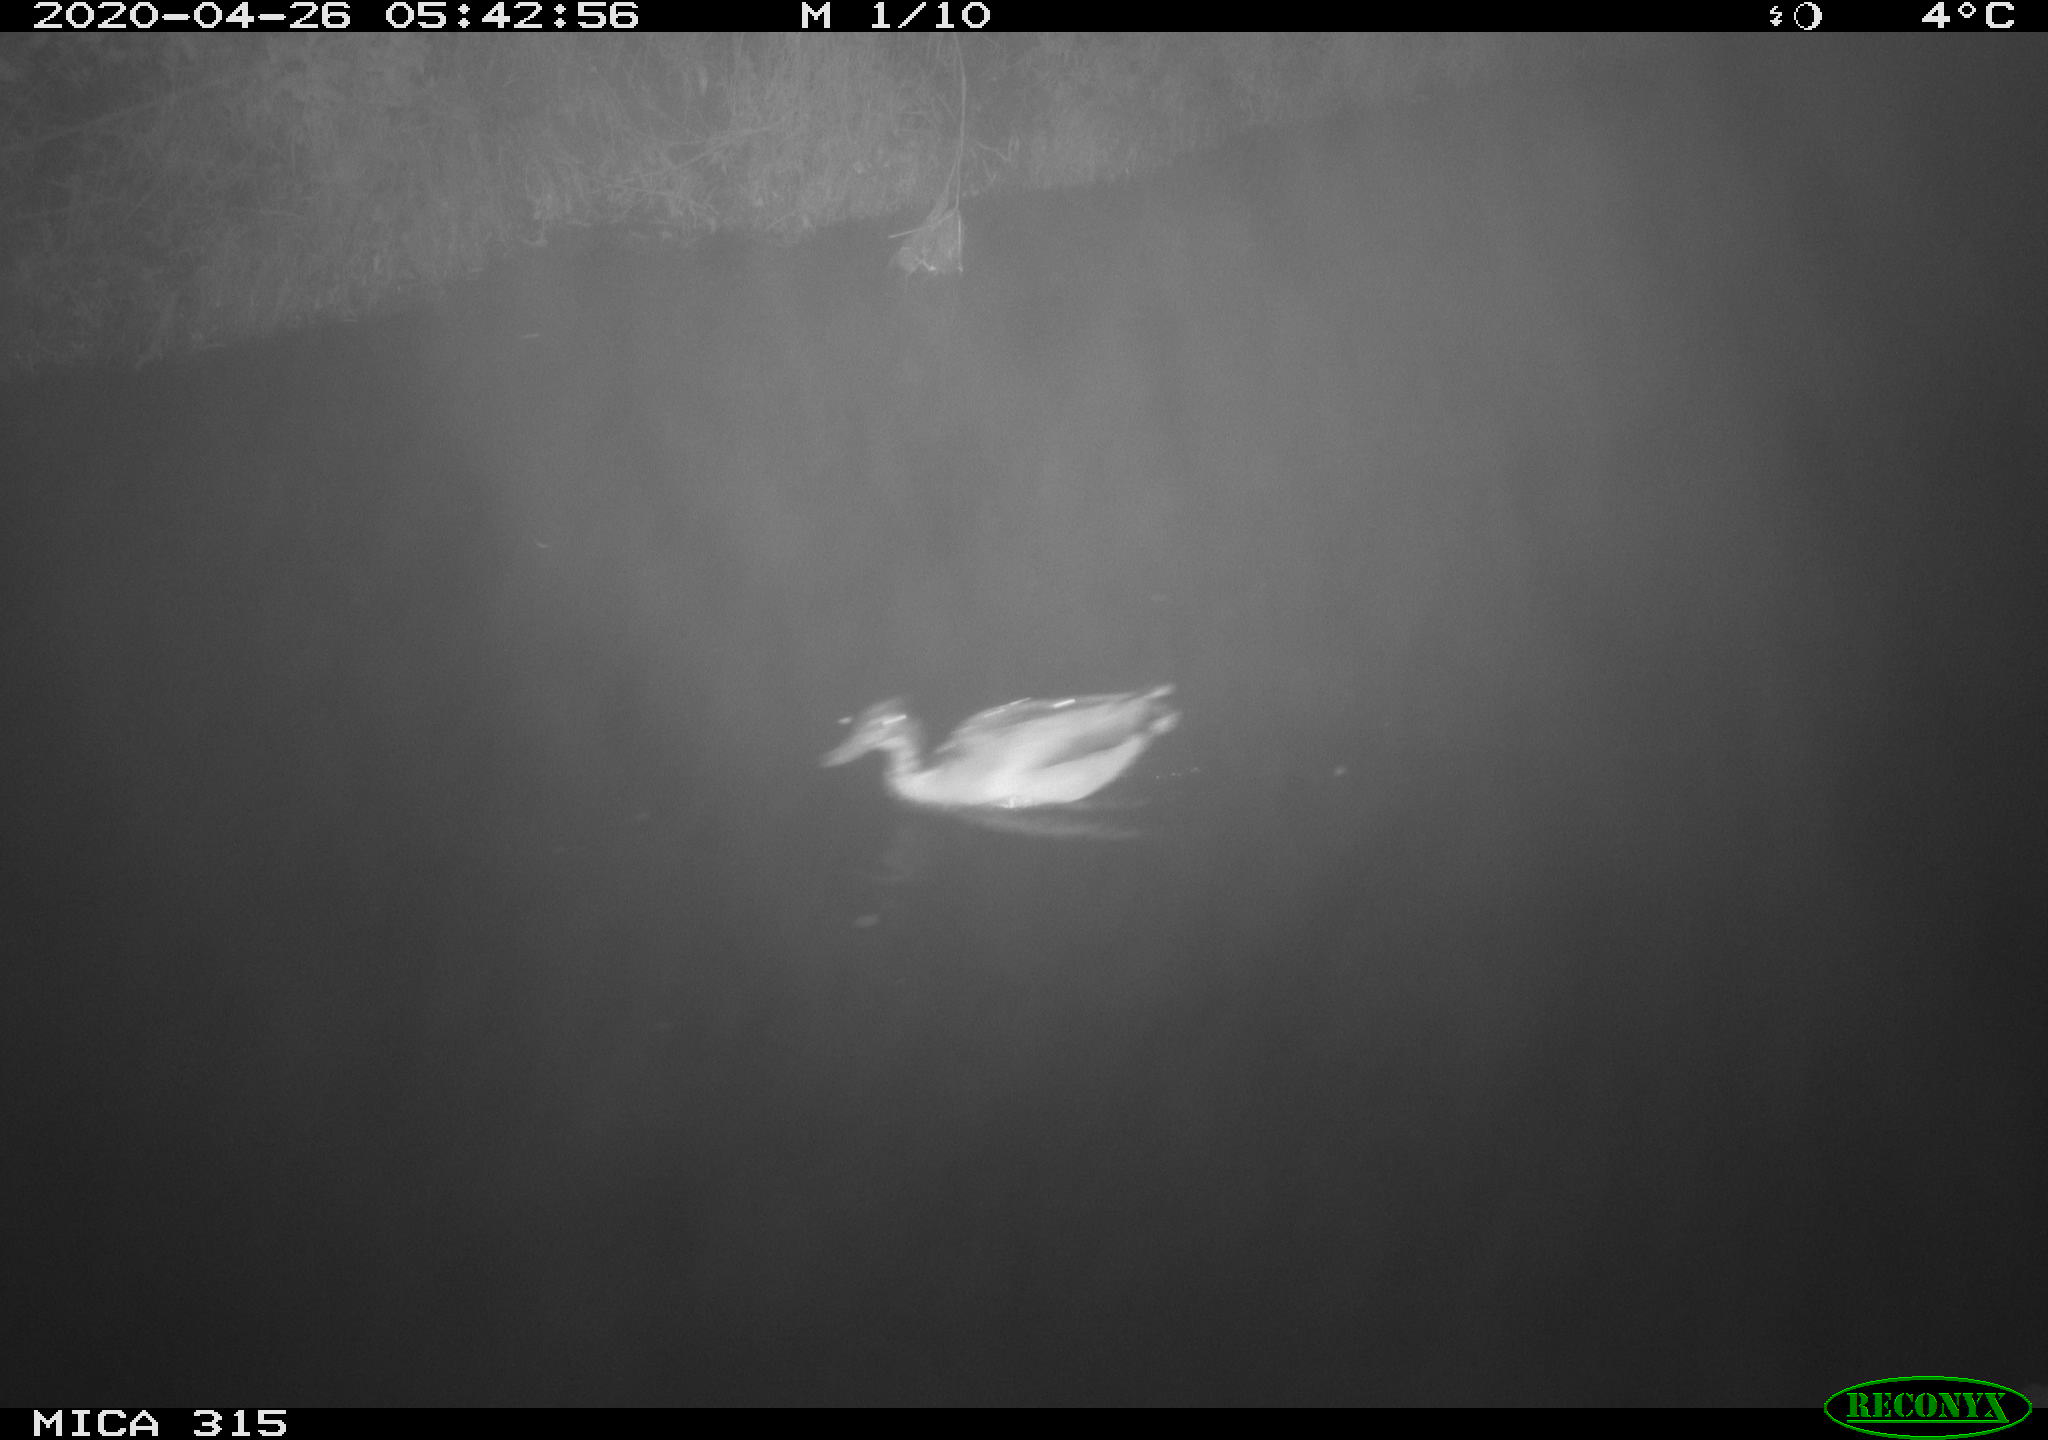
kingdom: Animalia
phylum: Chordata
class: Aves
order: Anseriformes
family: Anatidae
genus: Anas
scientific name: Anas platyrhynchos
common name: Mallard
